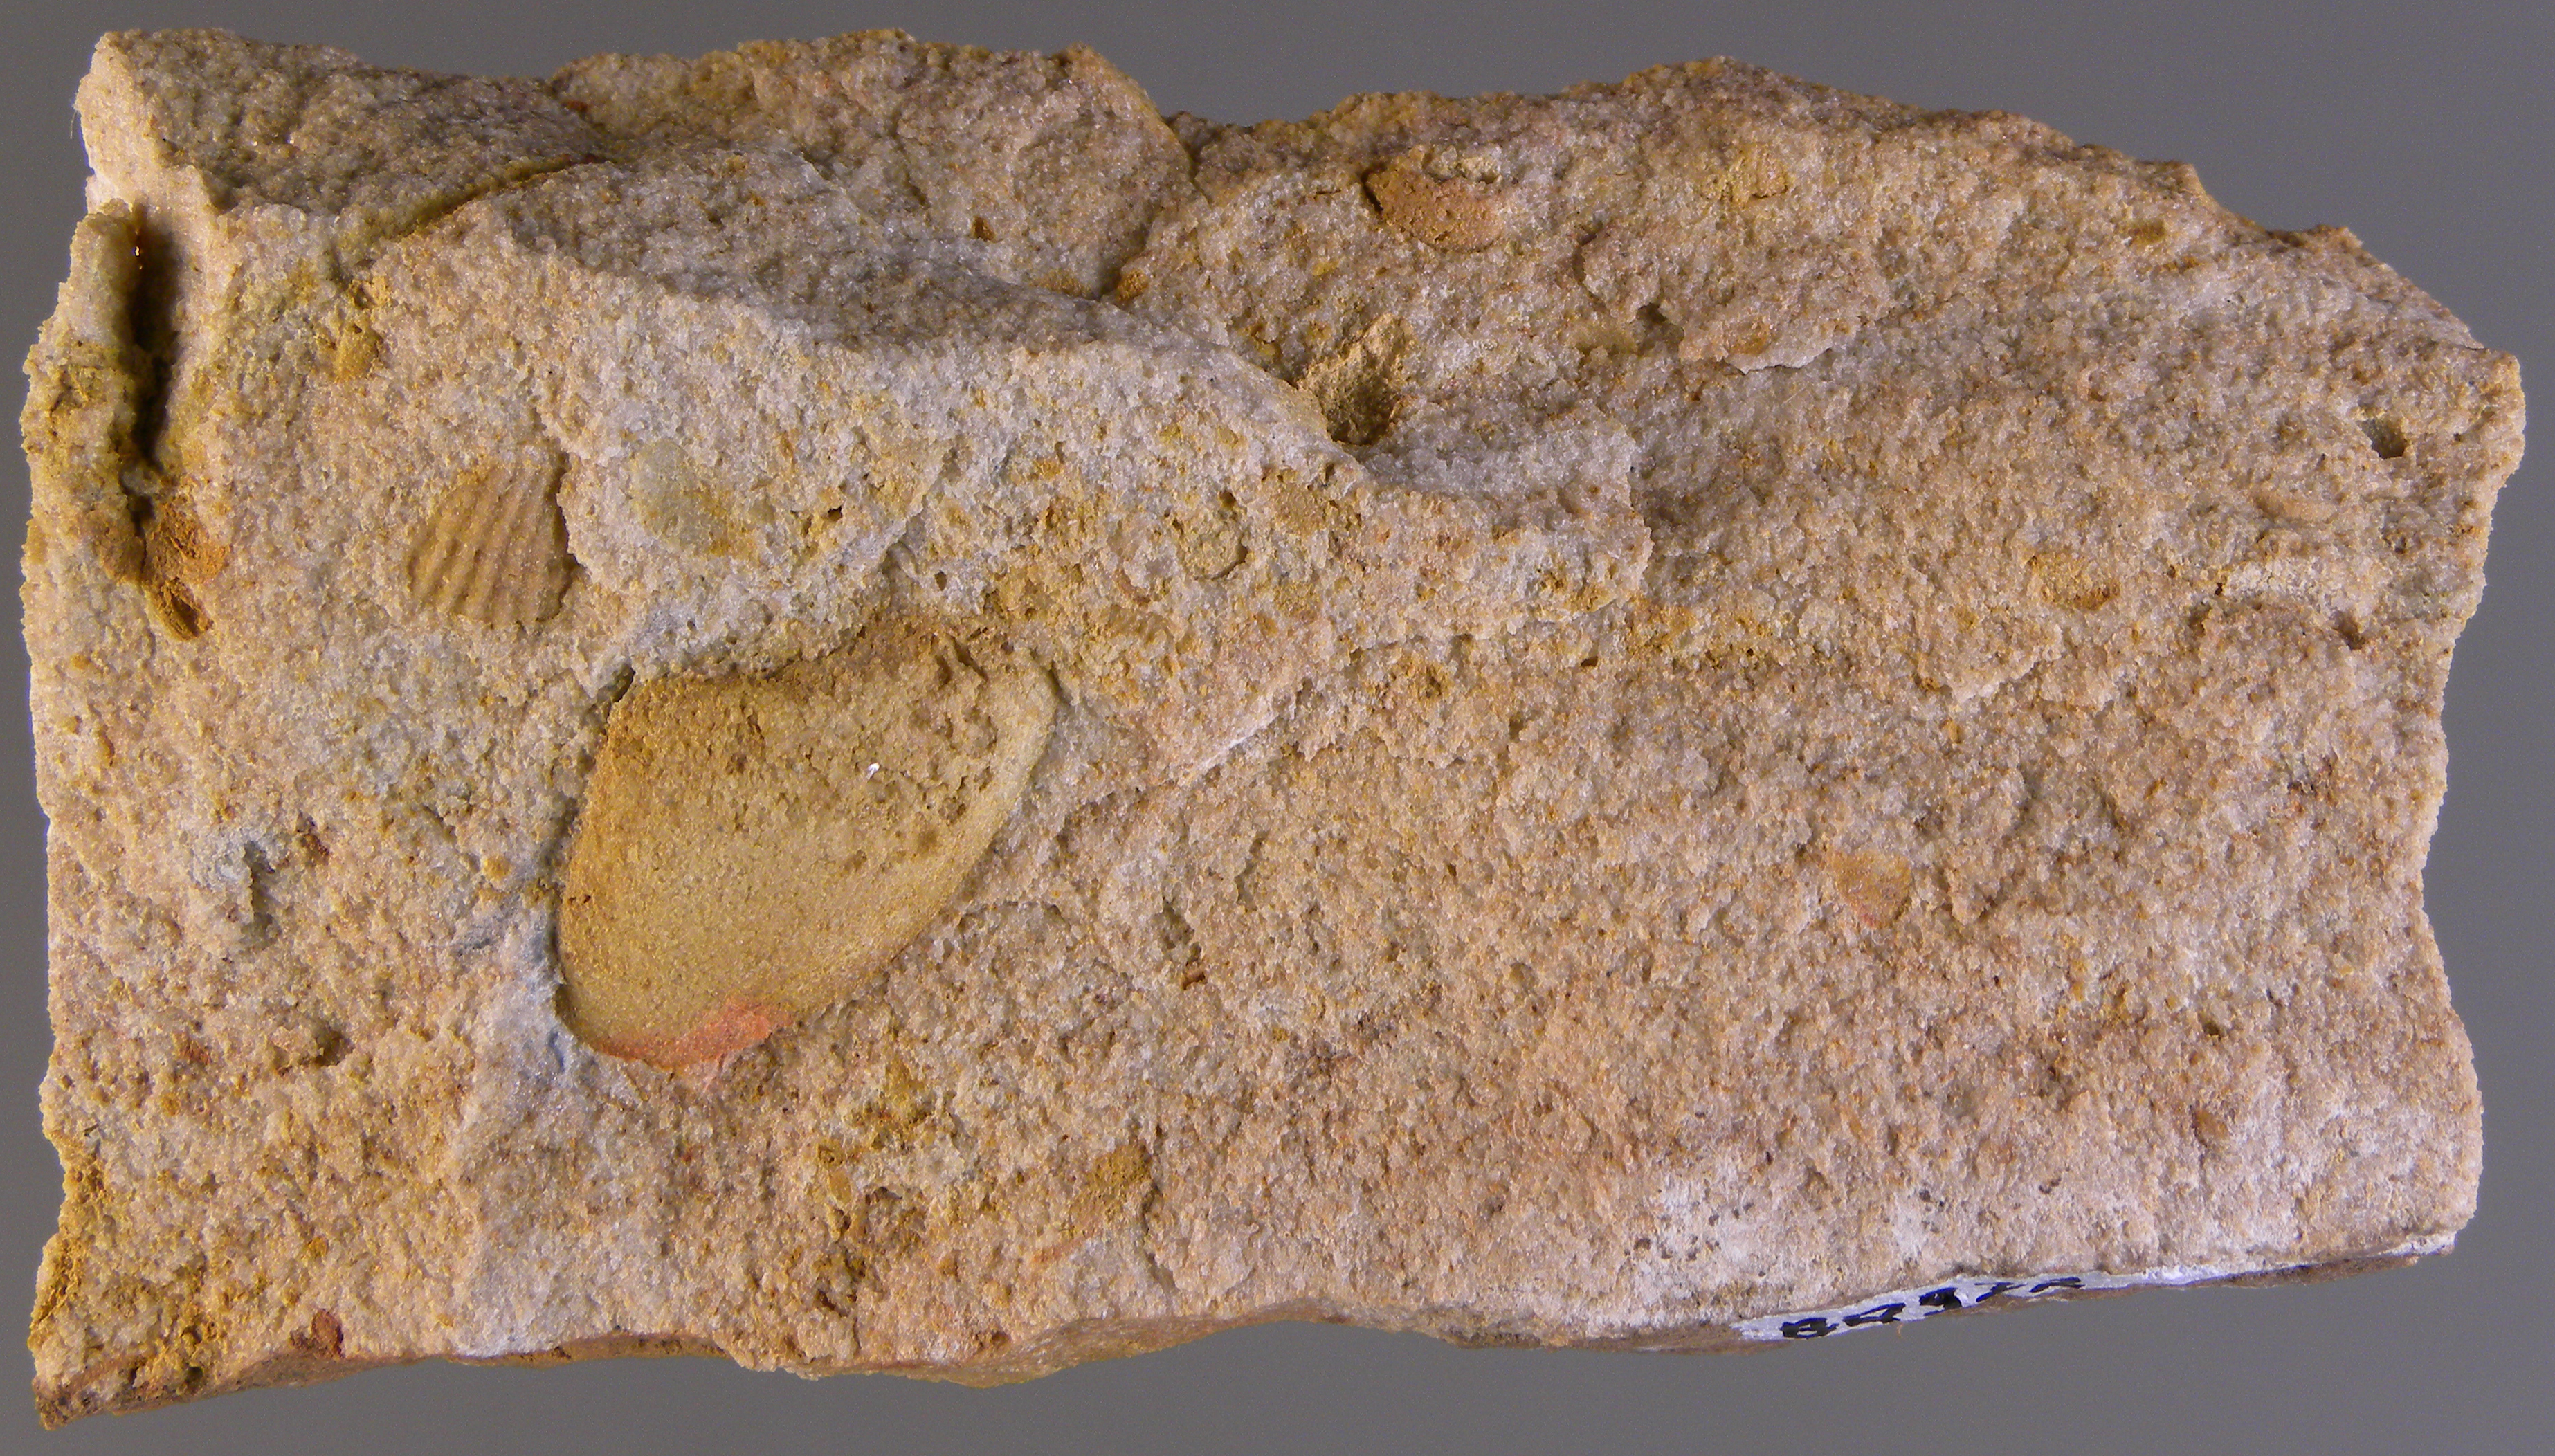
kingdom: Animalia
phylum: Mollusca
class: Bivalvia
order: Nuculanida
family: Nuculanidae
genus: Phestia
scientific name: Phestia
